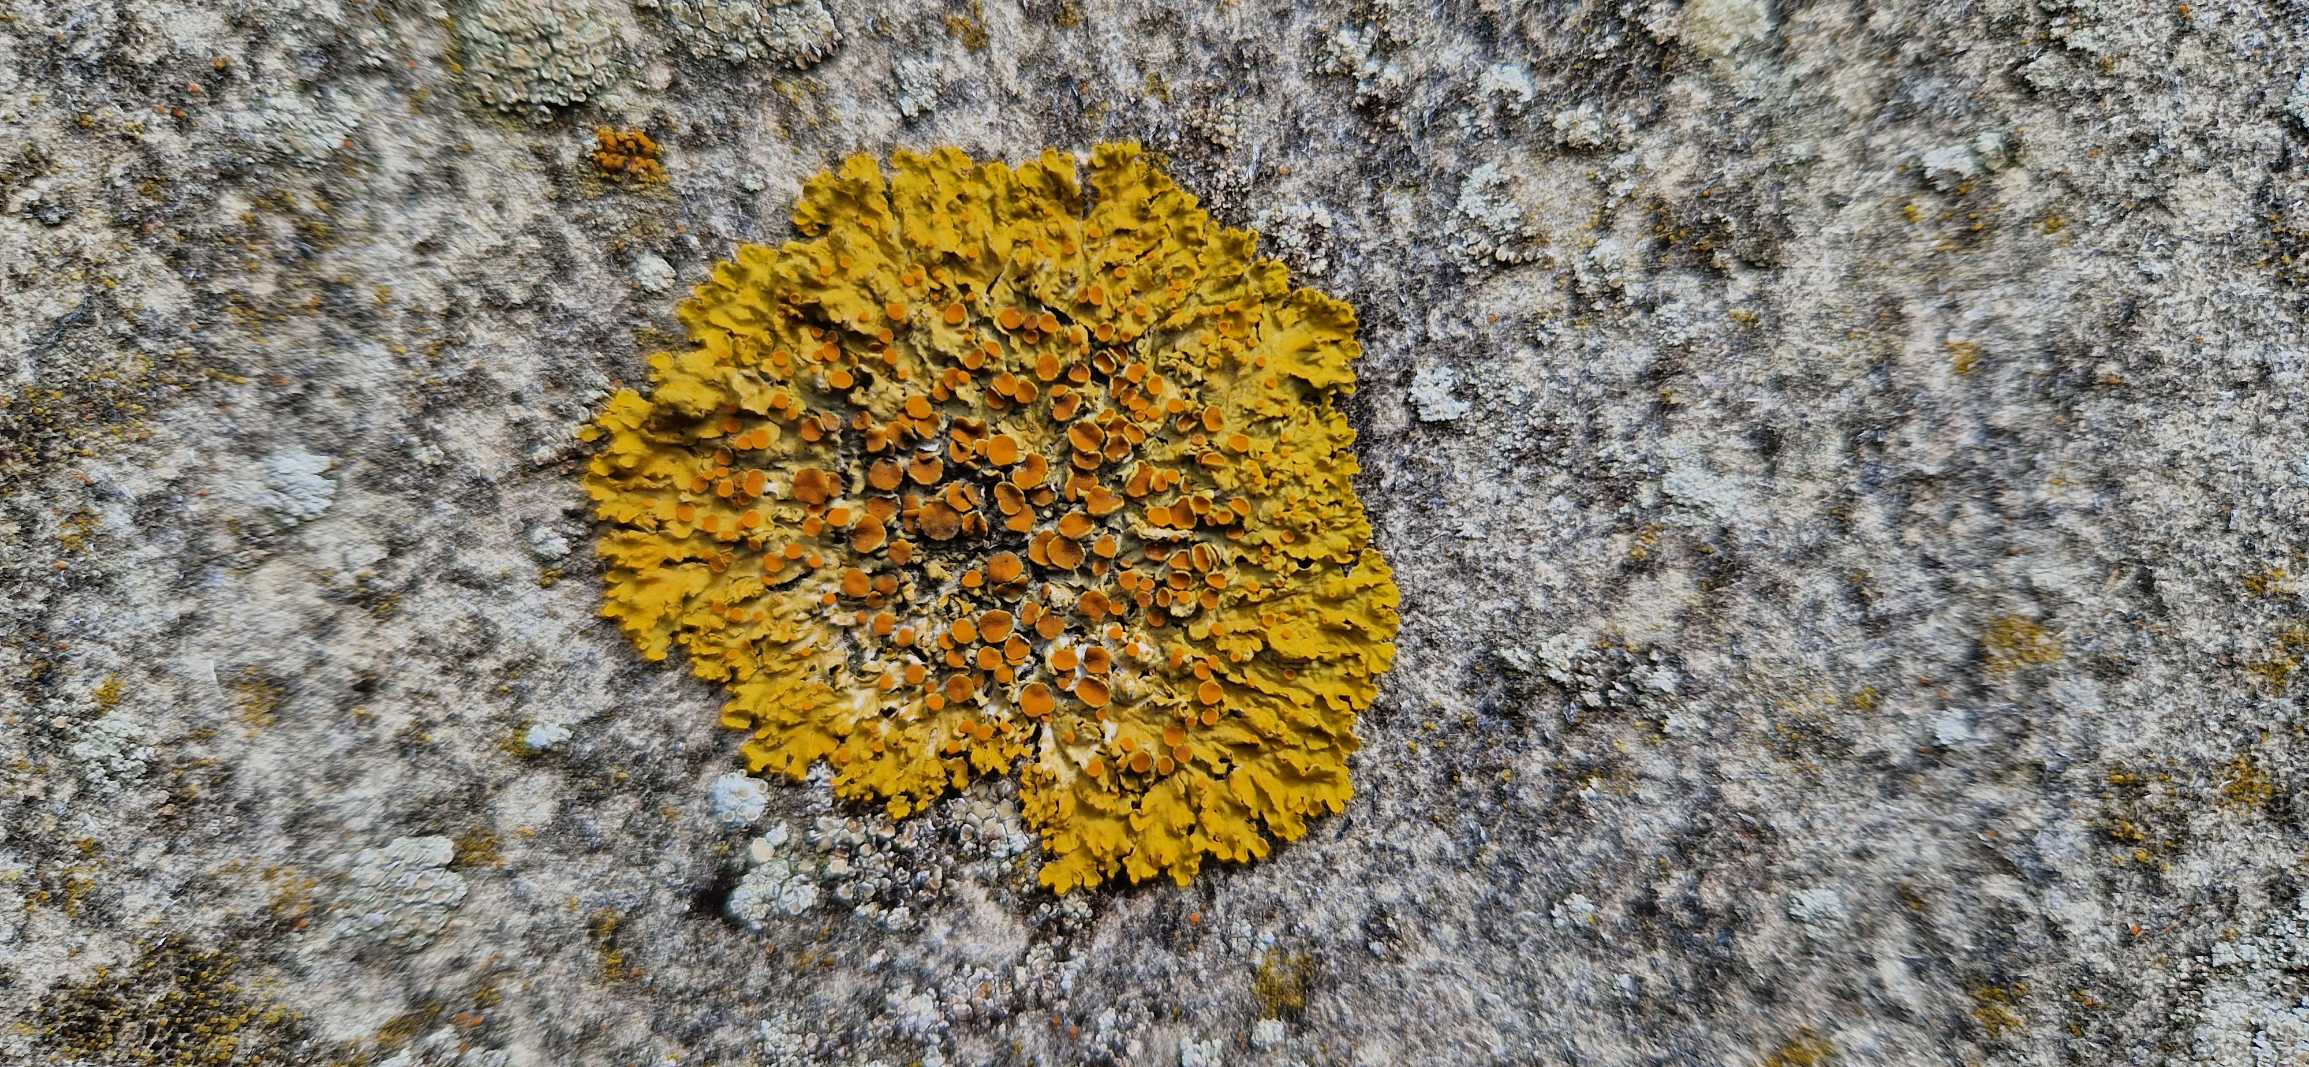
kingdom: Fungi
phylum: Ascomycota
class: Lecanoromycetes
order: Teloschistales
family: Teloschistaceae
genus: Xanthoria
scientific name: Xanthoria parietina
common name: Almindelig væggelav
